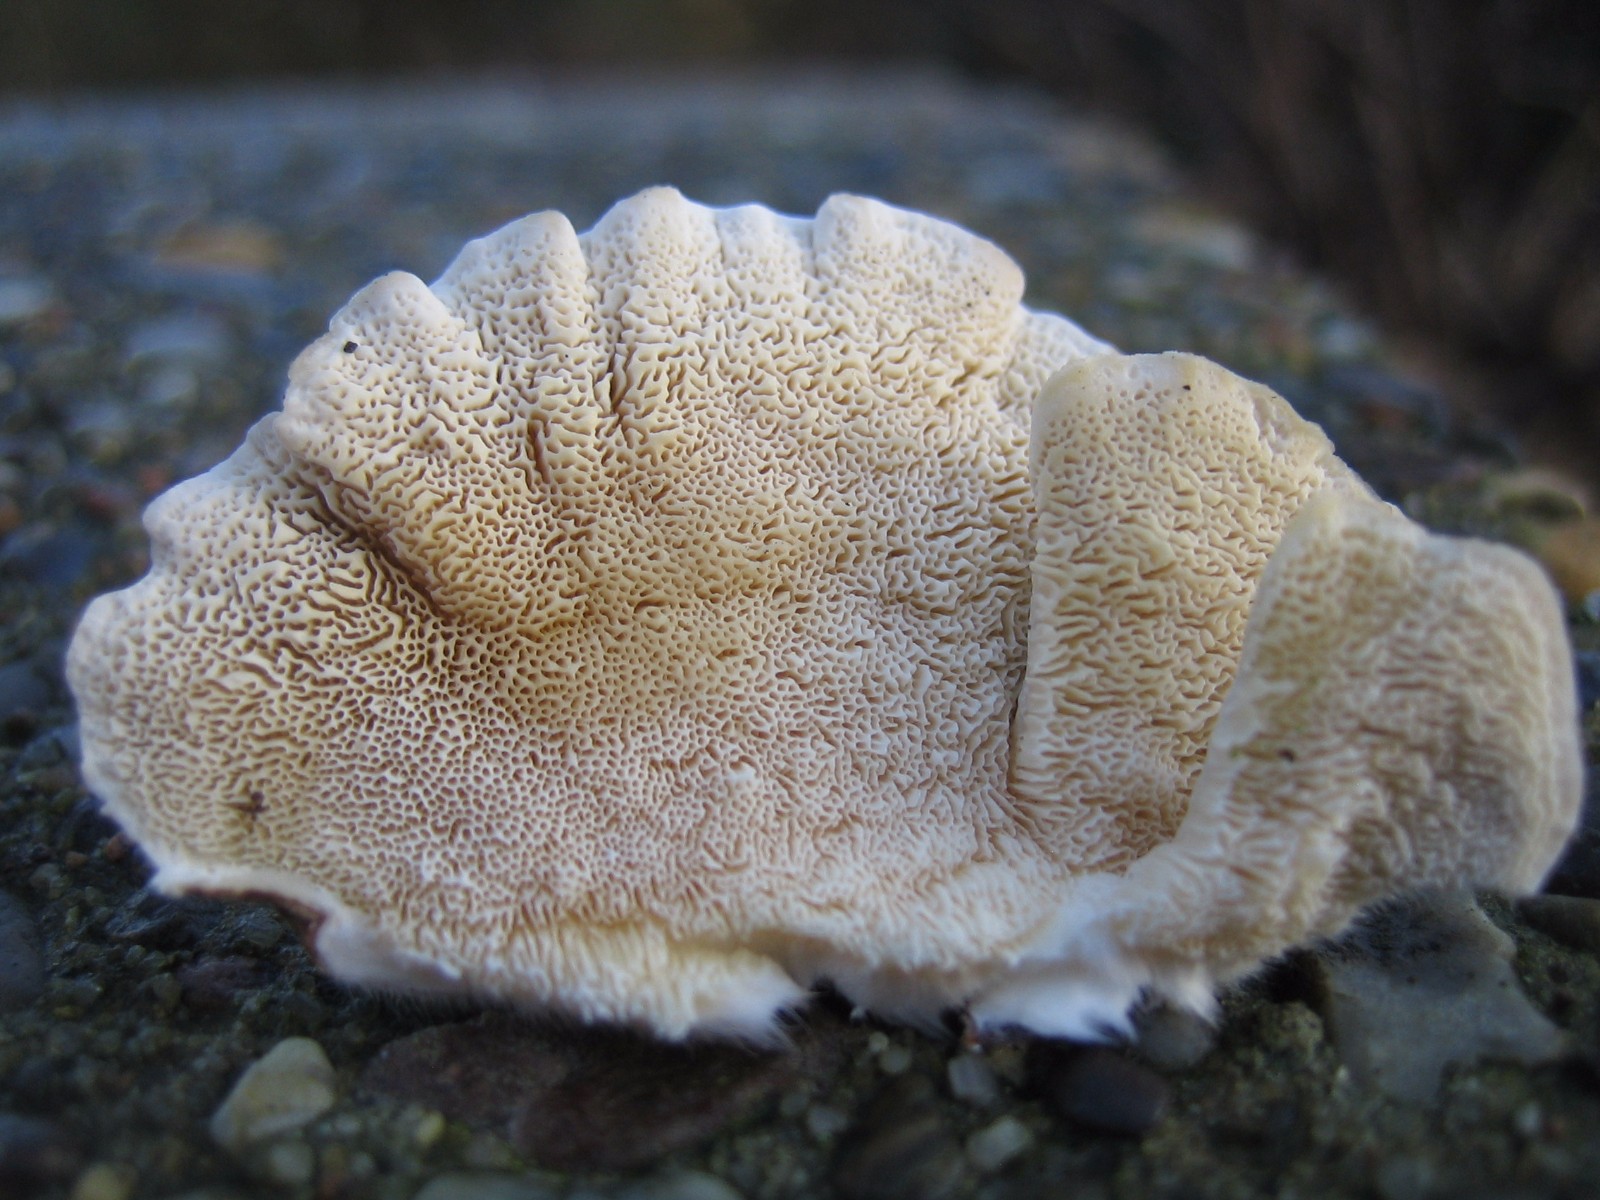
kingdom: Fungi
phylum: Basidiomycota
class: Agaricomycetes
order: Polyporales
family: Polyporaceae
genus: Trametes
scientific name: Trametes versicolor
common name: broget læderporesvamp
